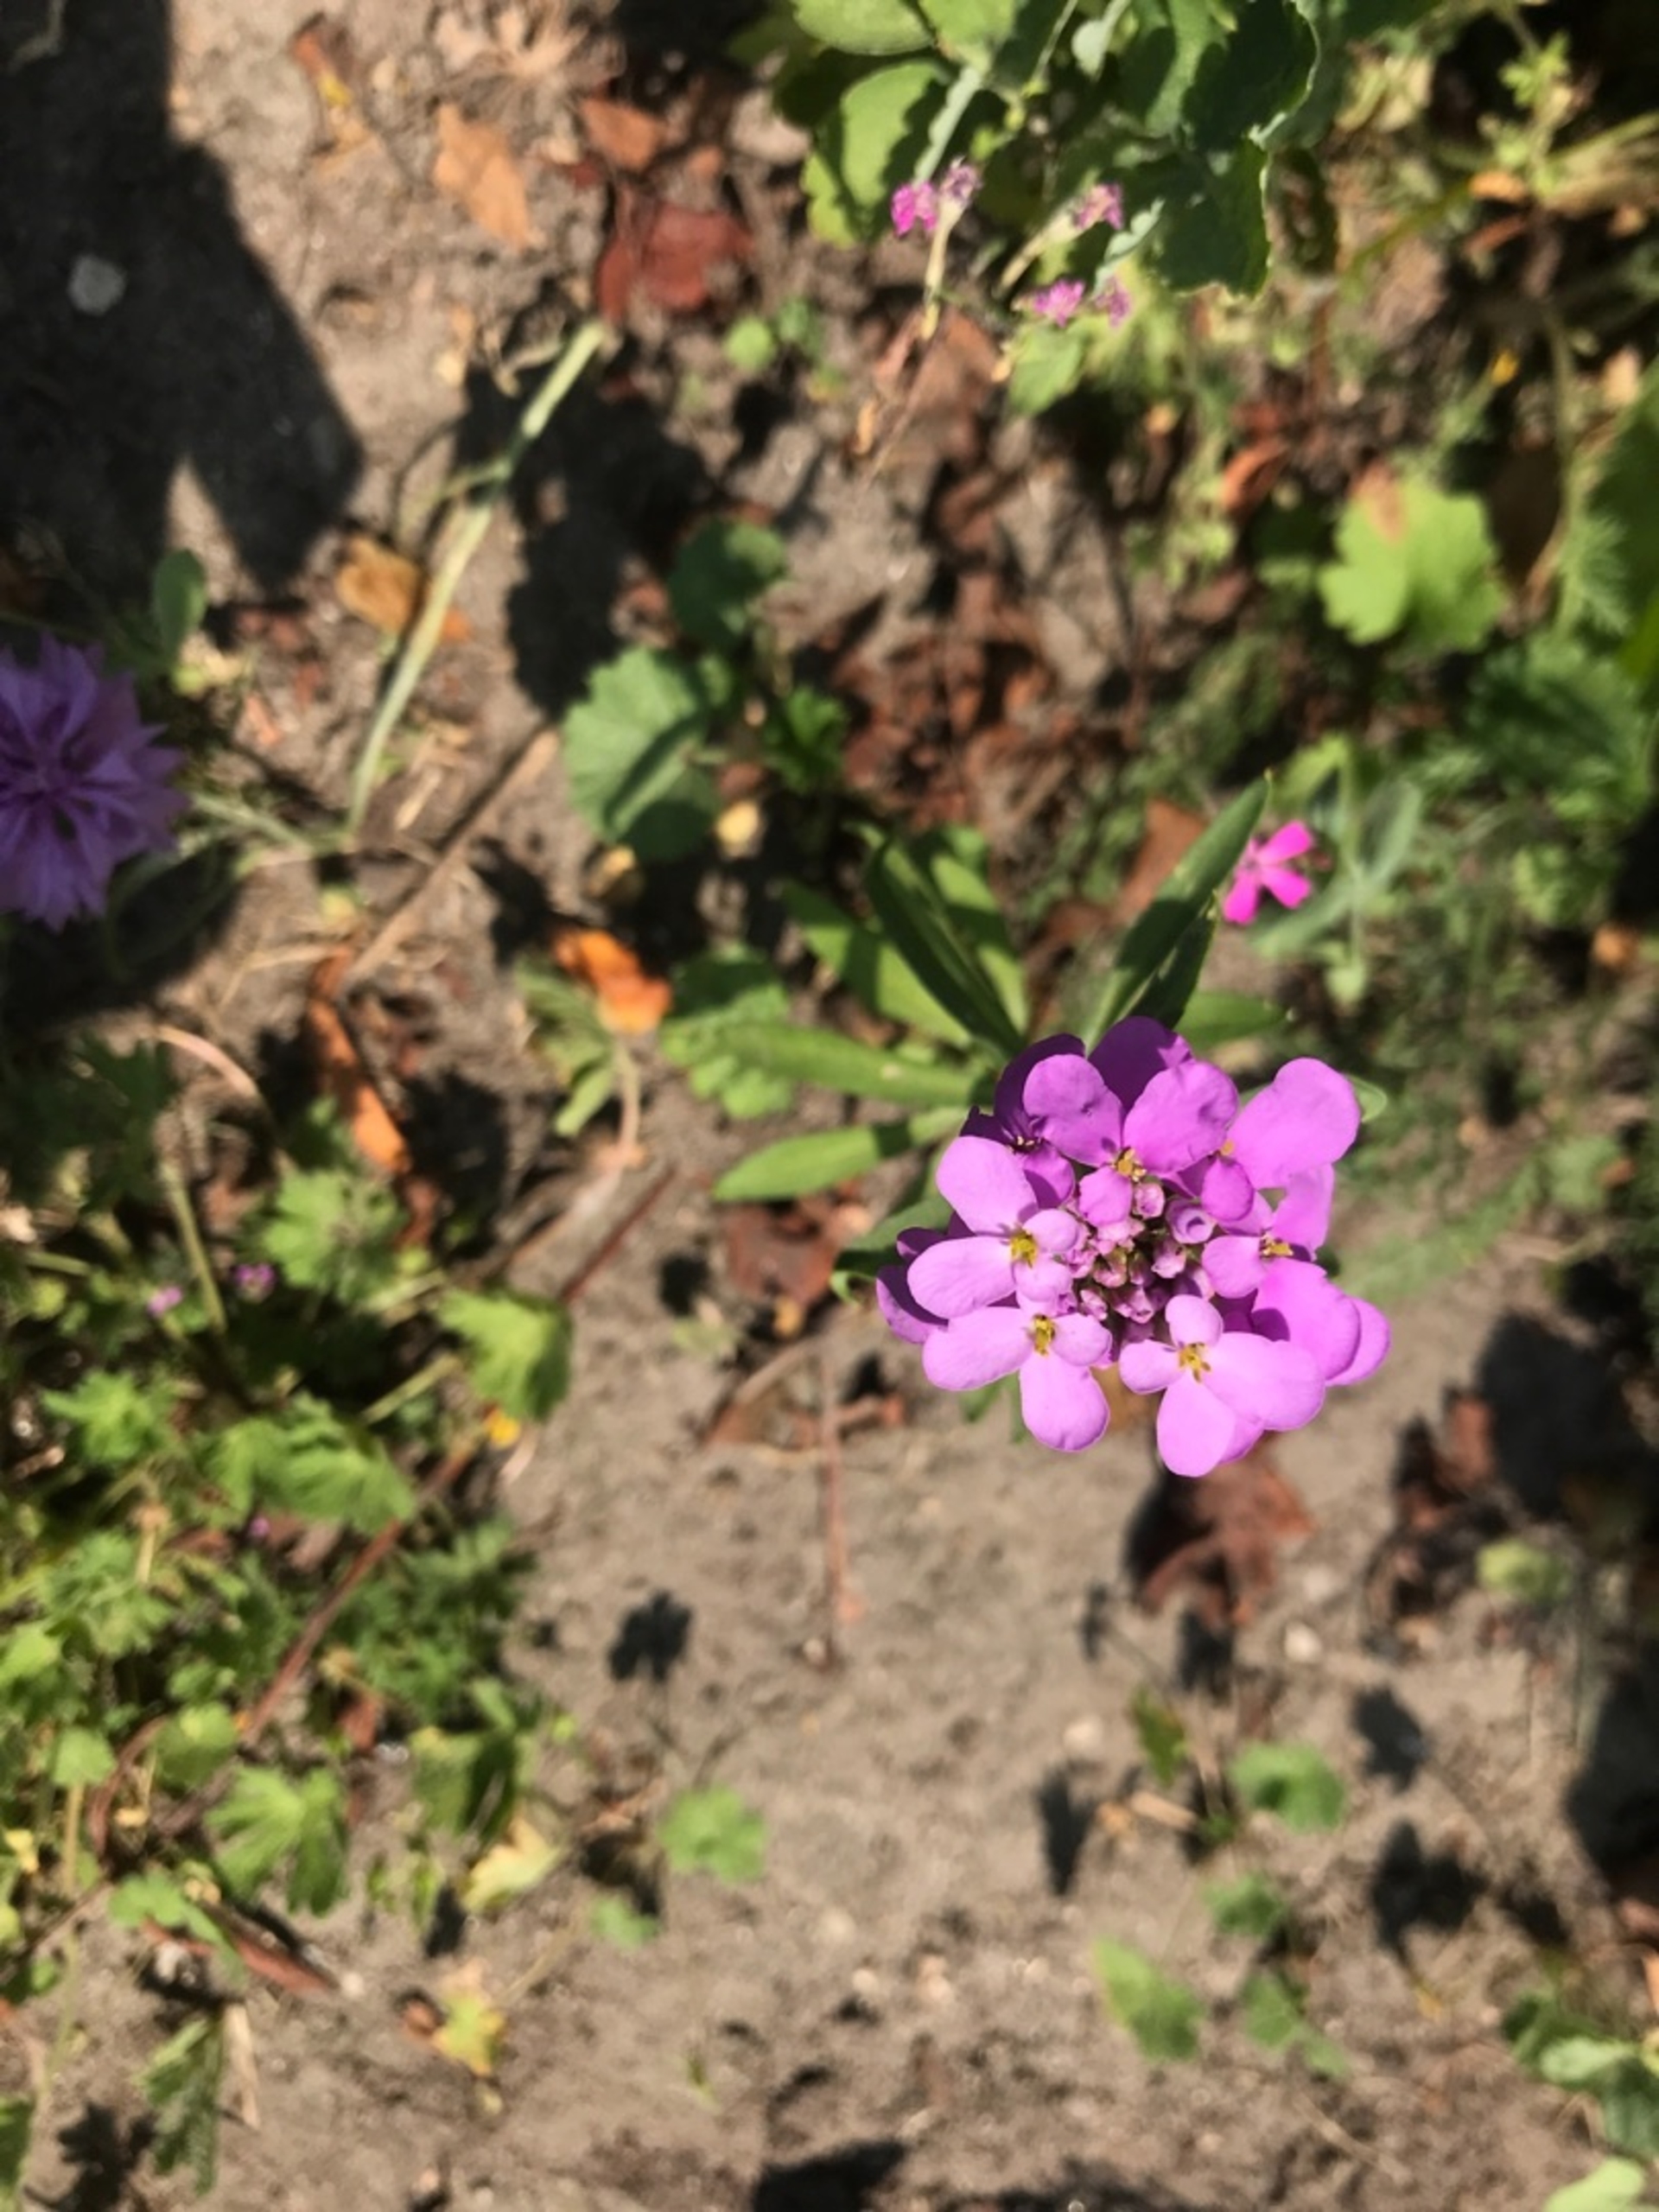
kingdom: Plantae
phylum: Tracheophyta
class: Magnoliopsida
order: Brassicales
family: Brassicaceae
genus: Iberis
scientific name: Iberis umbellata
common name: Skærm-sløjfeblomst
